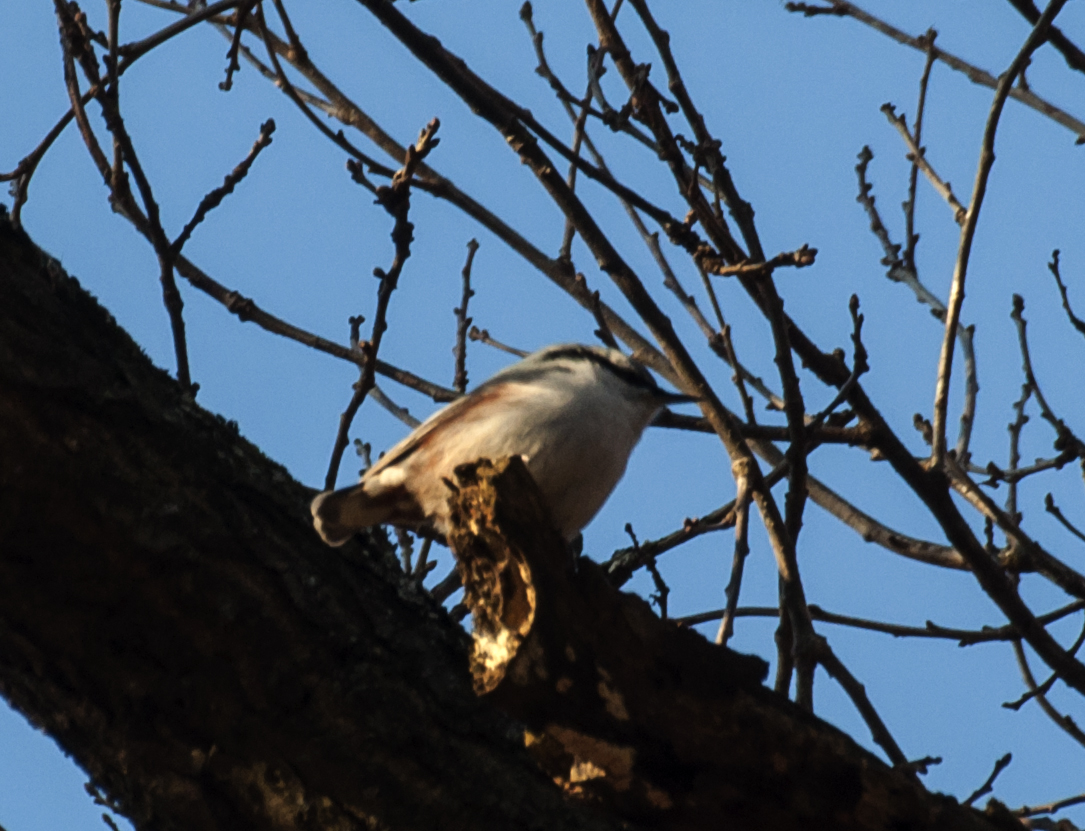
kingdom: Animalia
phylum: Chordata
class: Aves
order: Passeriformes
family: Sittidae
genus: Sitta
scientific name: Sitta europaea
